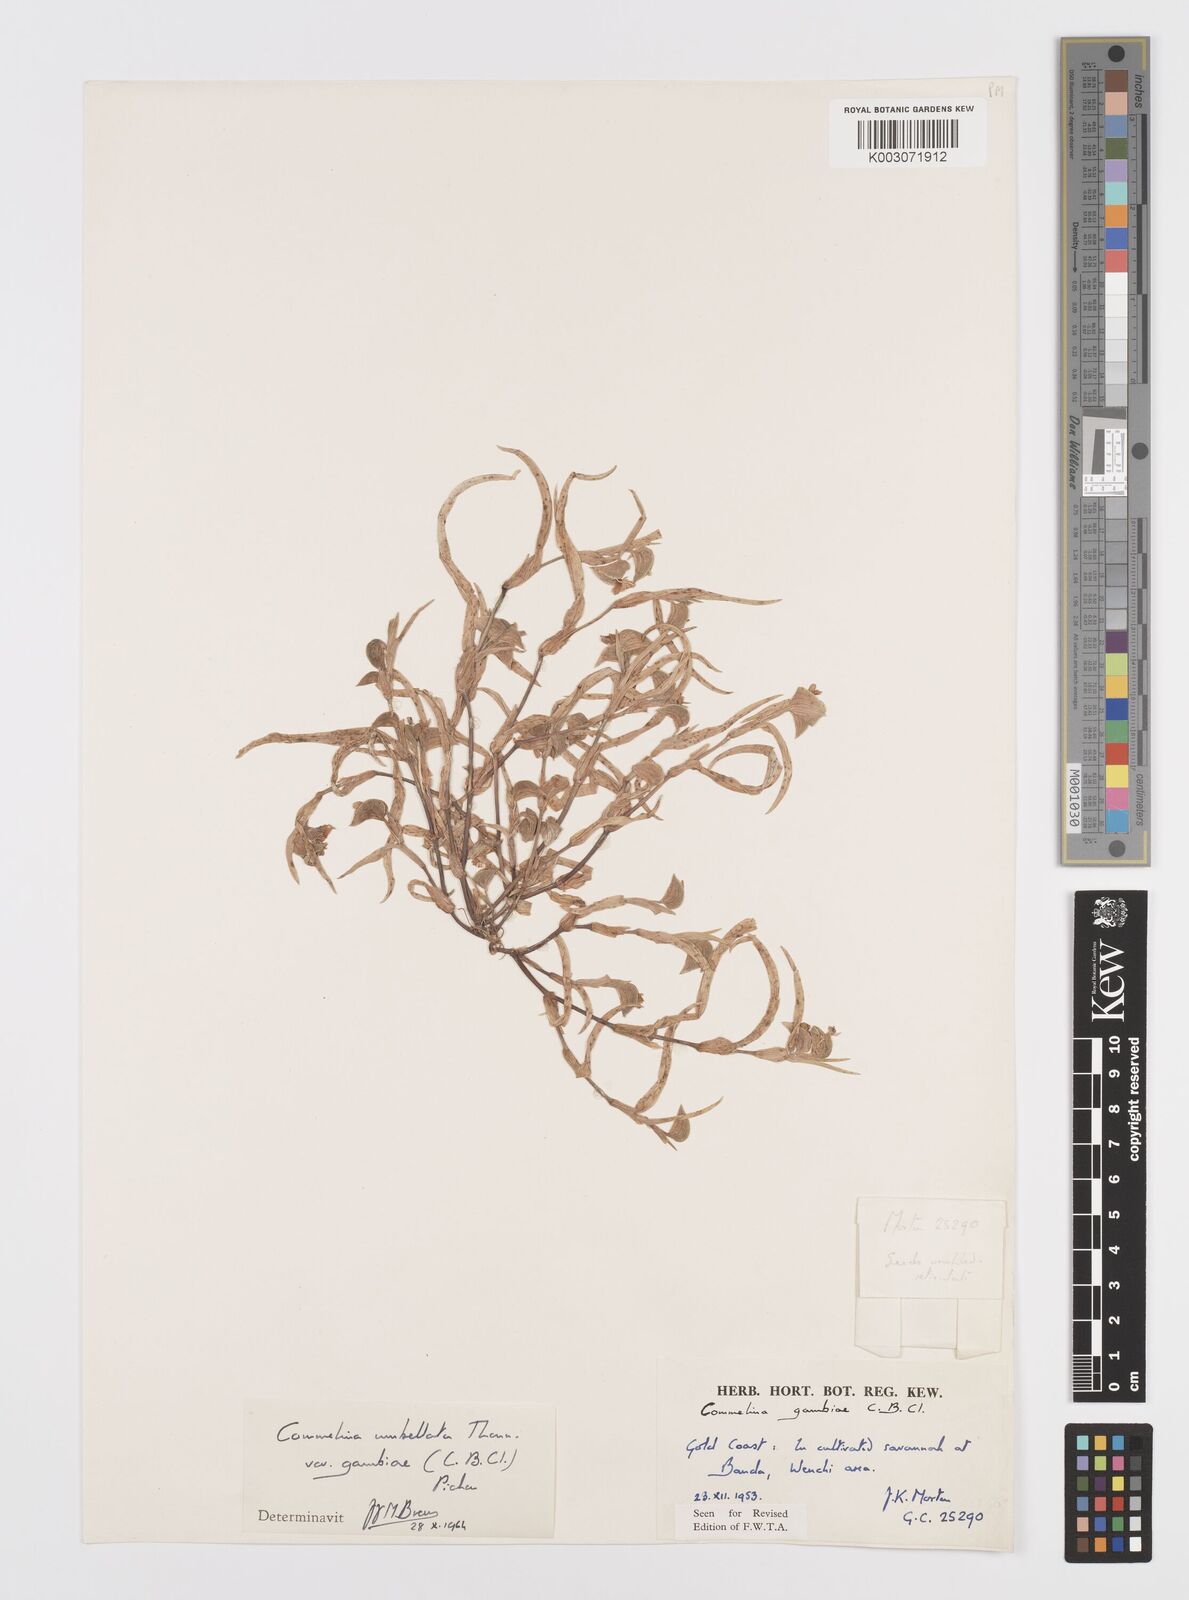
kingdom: Plantae
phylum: Tracheophyta
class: Liliopsida
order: Commelinales
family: Commelinaceae
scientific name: Commelinaceae
